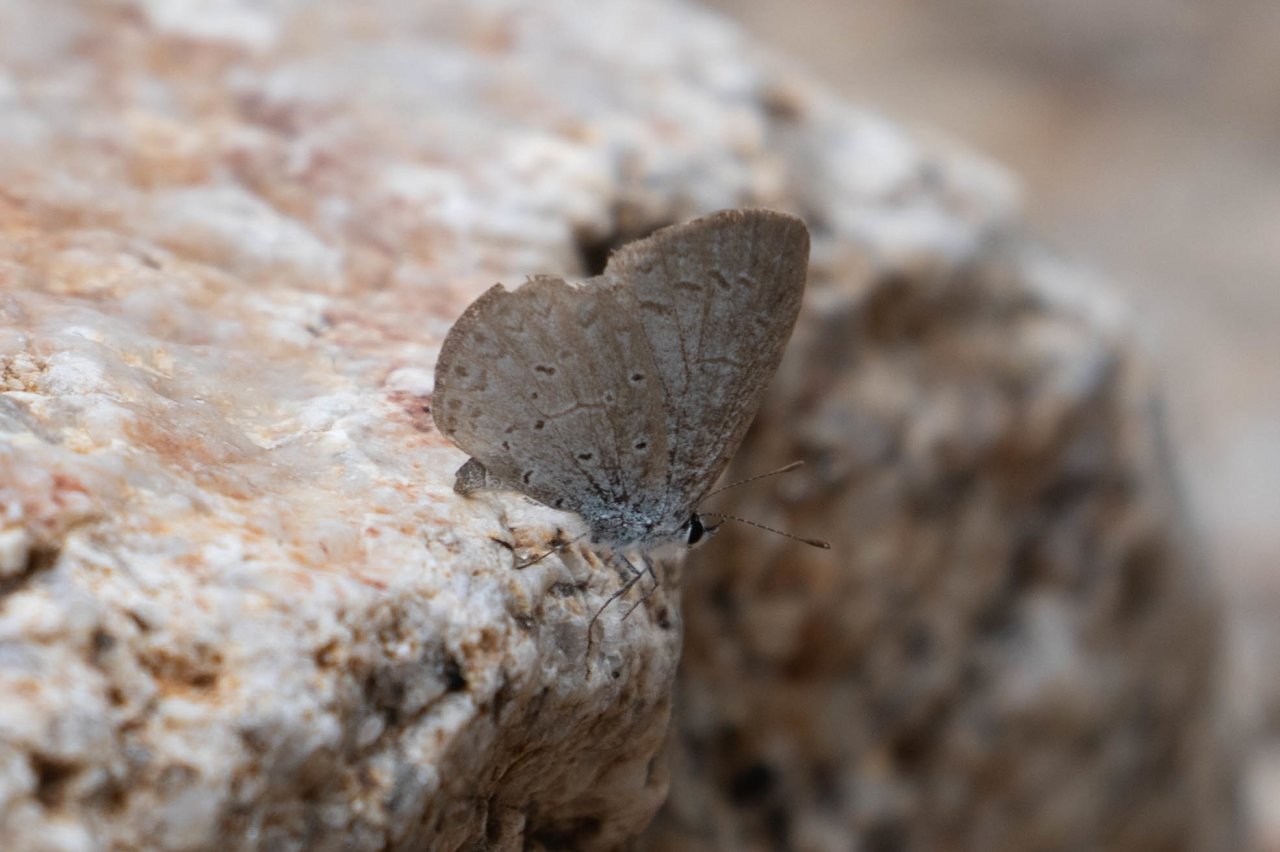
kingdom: Animalia
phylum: Arthropoda
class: Insecta
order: Lepidoptera
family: Lycaenidae
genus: Celastrina
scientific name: Celastrina ladon
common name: Echo Azure
